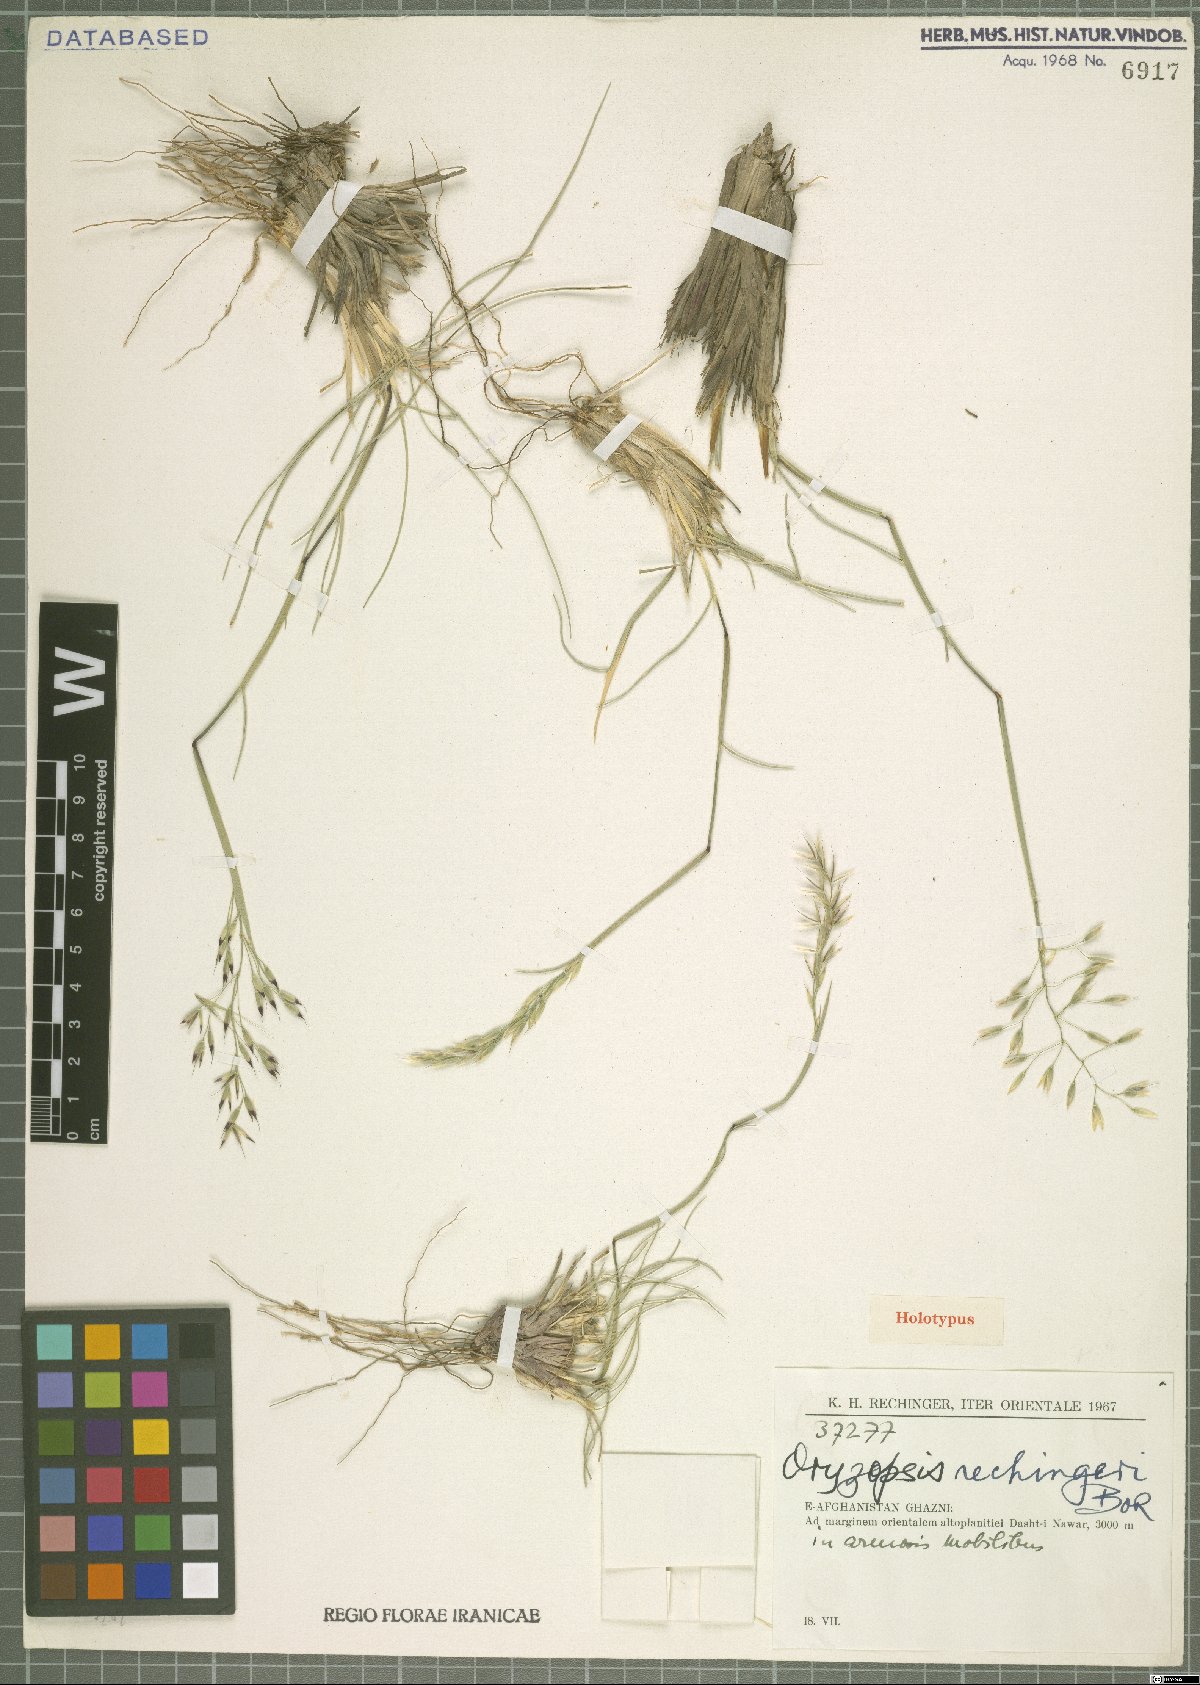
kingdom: Plantae
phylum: Tracheophyta
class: Liliopsida
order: Poales
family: Poaceae
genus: Piptatherum
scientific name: Piptatherum rechingeri
